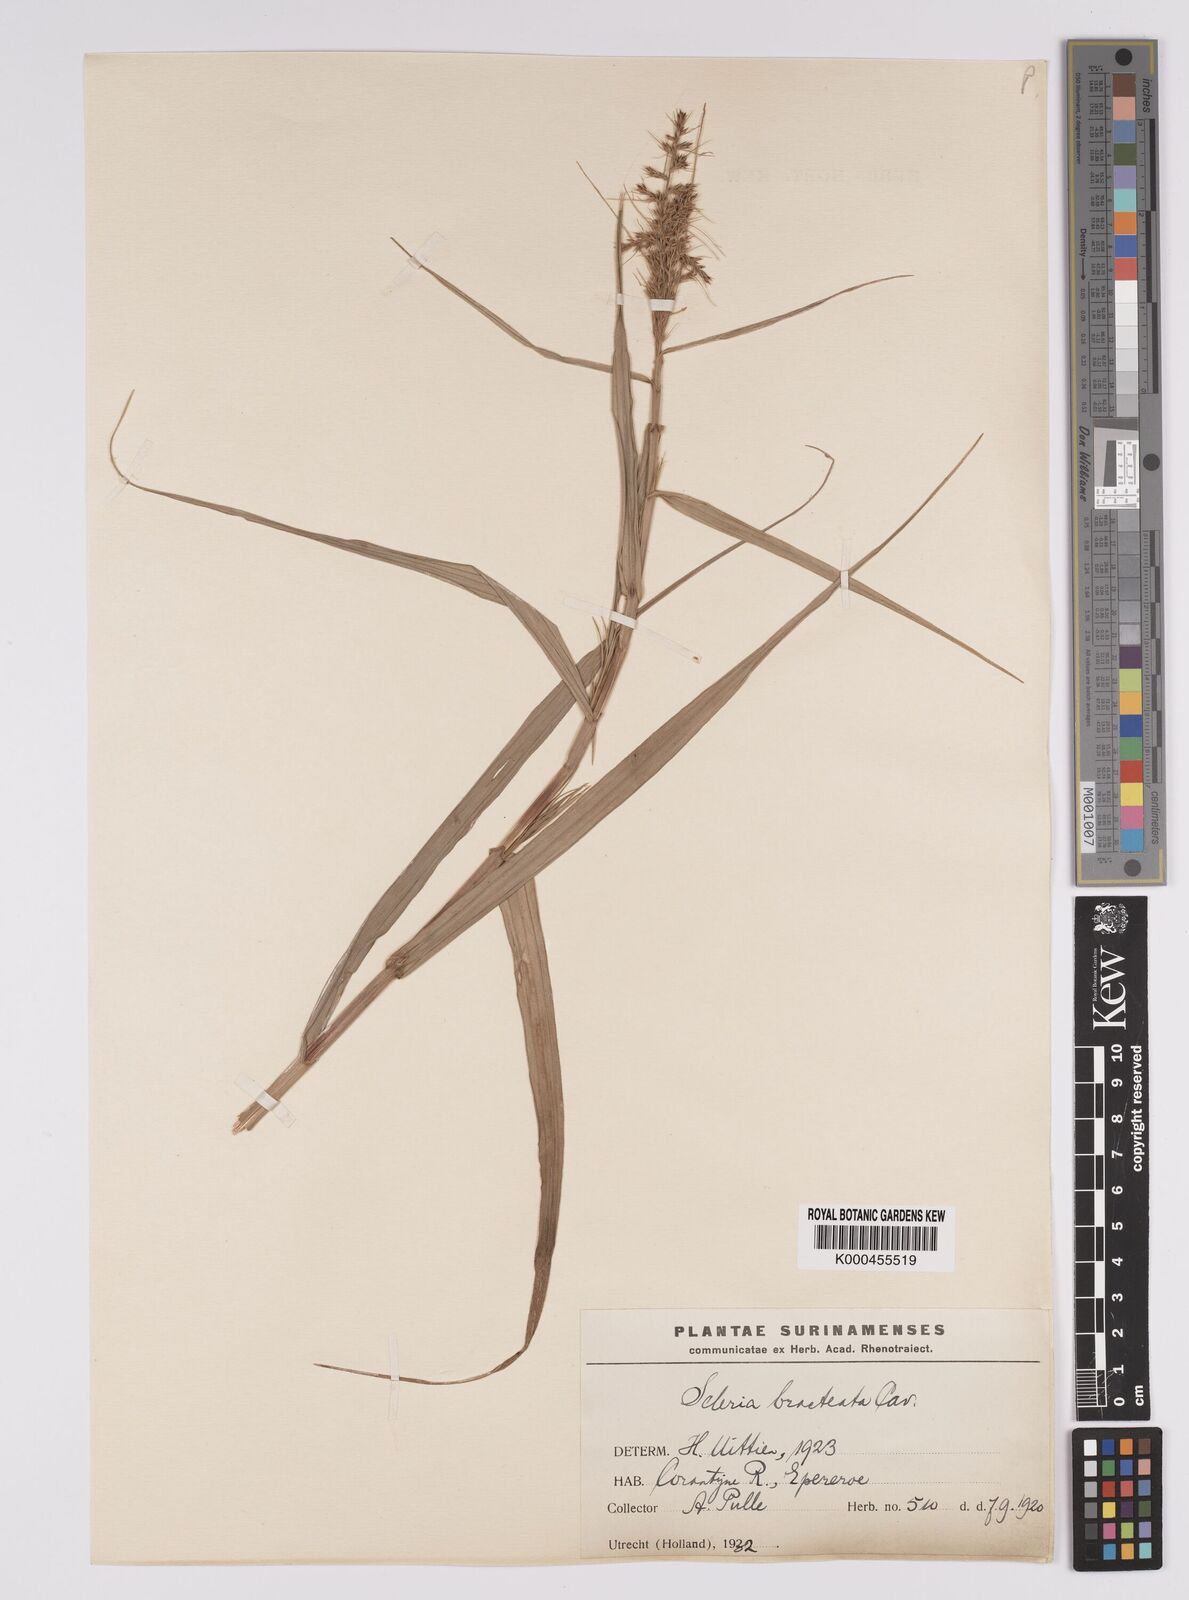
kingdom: Plantae
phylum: Tracheophyta
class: Liliopsida
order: Poales
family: Cyperaceae
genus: Scleria
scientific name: Scleria bracteata
